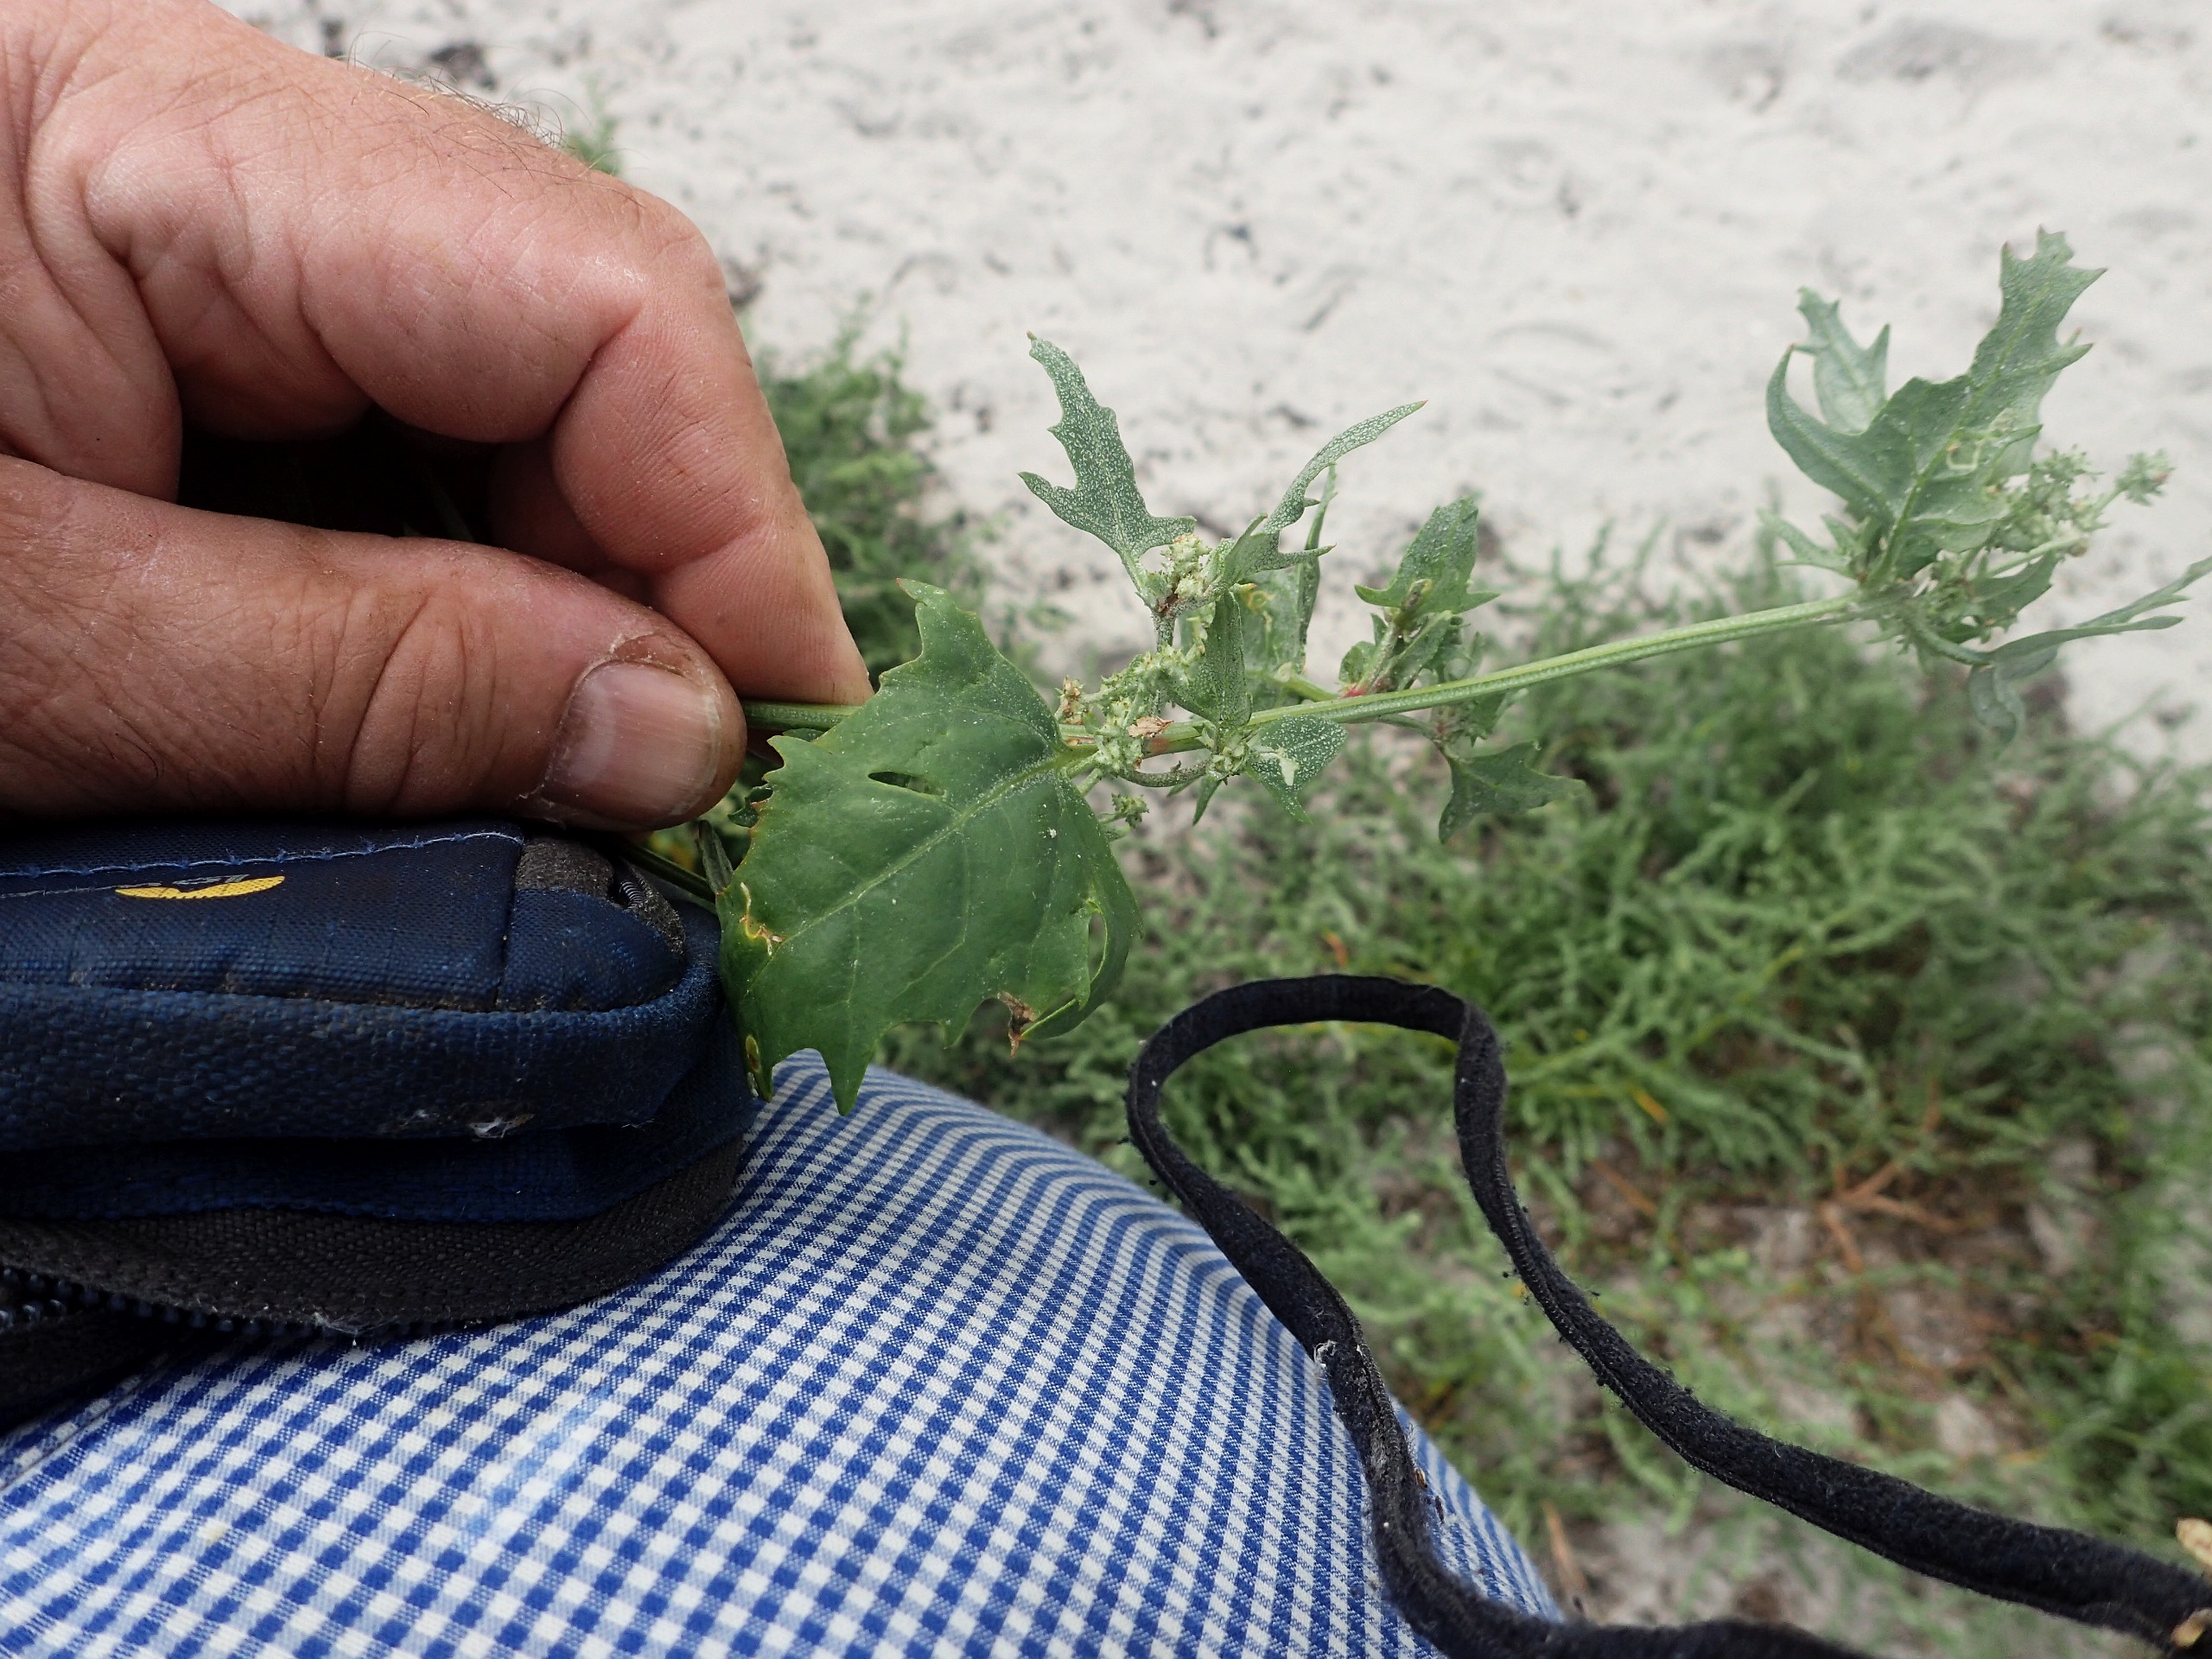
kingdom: Plantae
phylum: Tracheophyta
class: Magnoliopsida
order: Caryophyllales
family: Amaranthaceae
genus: Atriplex
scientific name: Atriplex calotheca
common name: Skønbægret mælde
